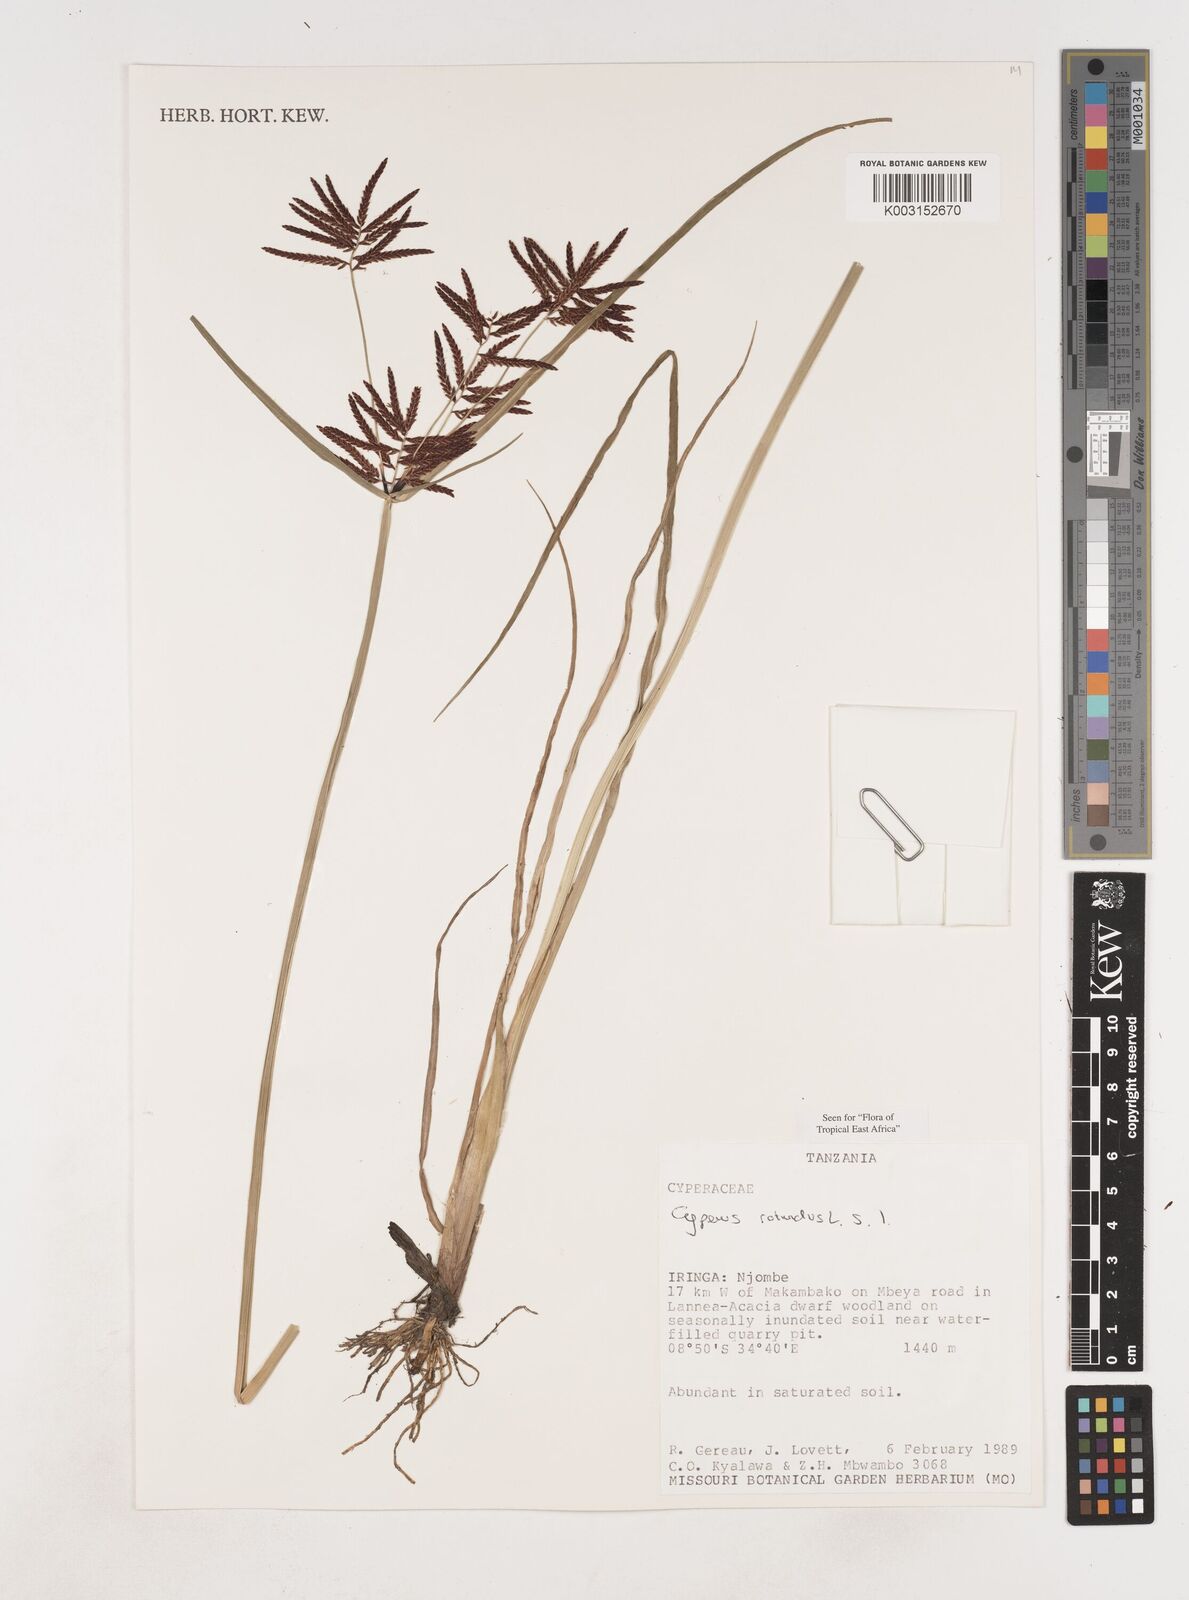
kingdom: Plantae
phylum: Tracheophyta
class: Liliopsida
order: Poales
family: Cyperaceae
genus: Cyperus
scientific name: Cyperus rotundus
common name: Nutgrass
